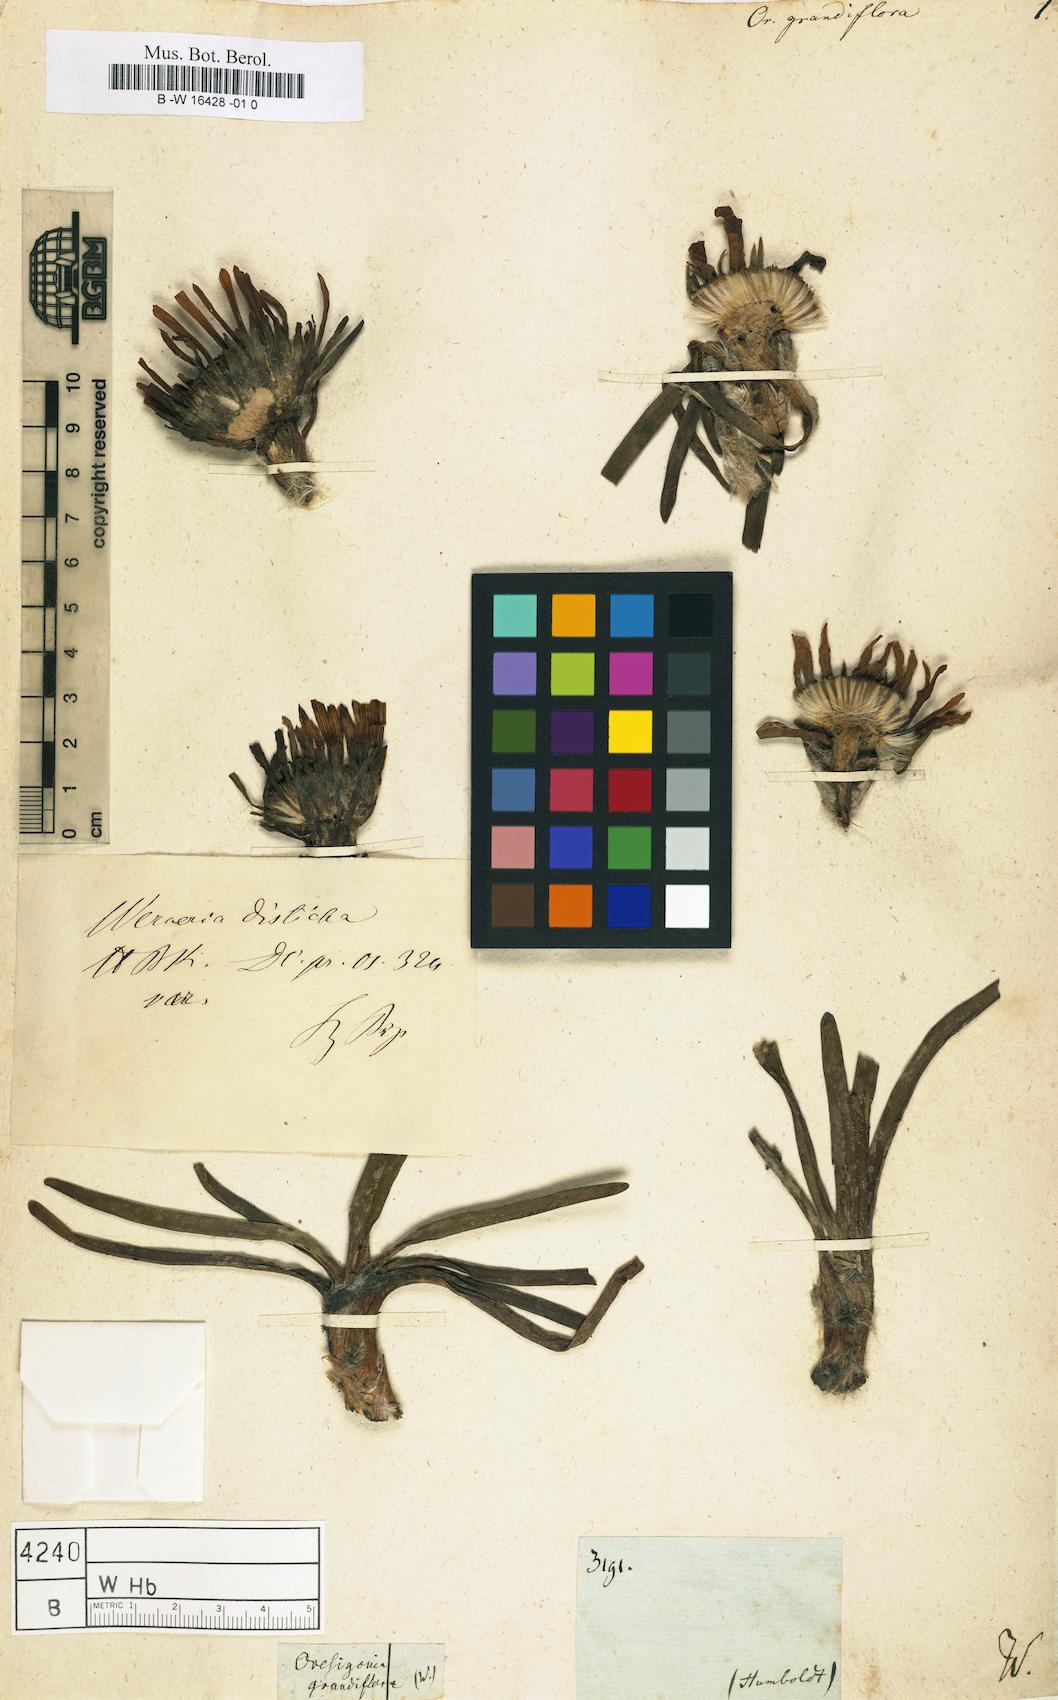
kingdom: Plantae
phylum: Tracheophyta
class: Magnoliopsida
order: Asterales
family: Asteraceae
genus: Rockhausenia
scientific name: Rockhausenia nubigena
